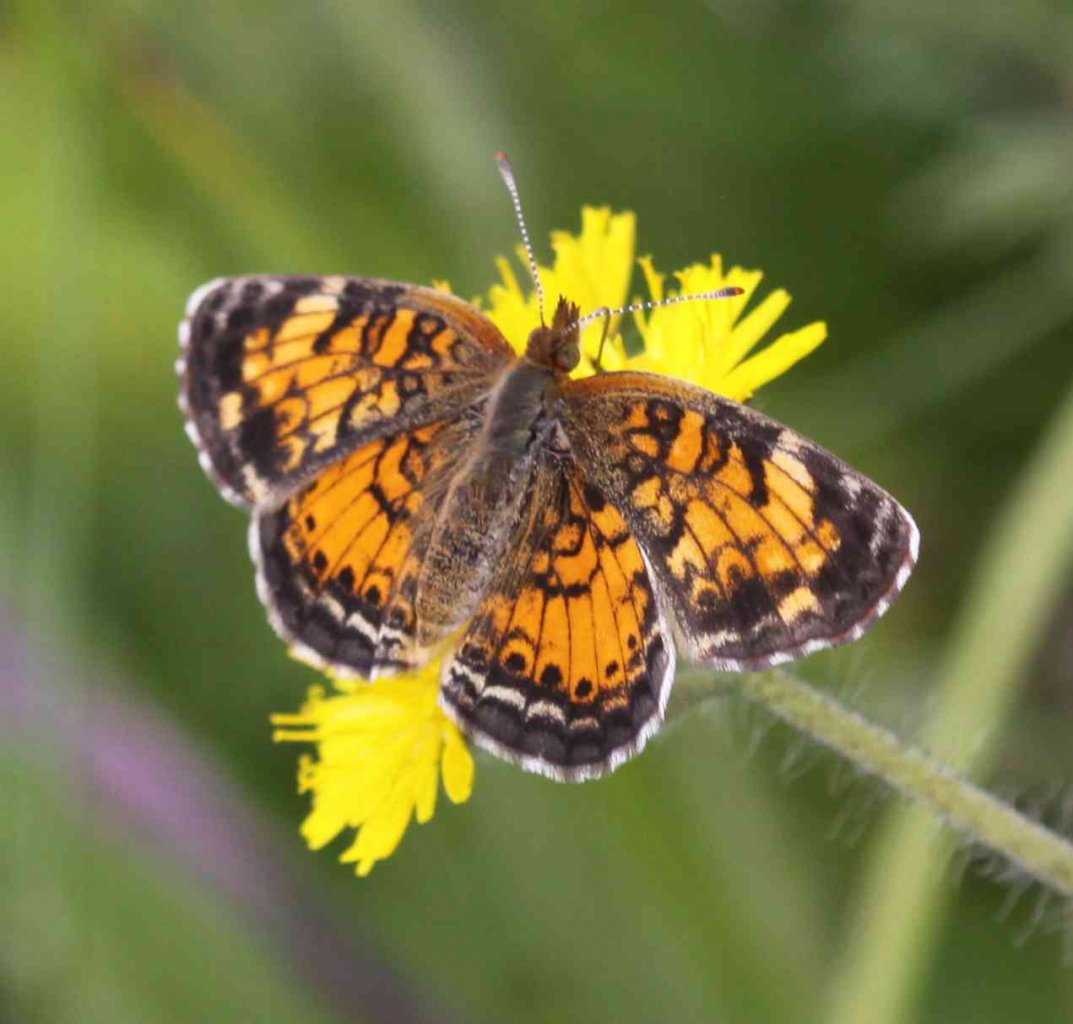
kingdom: Animalia
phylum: Arthropoda
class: Insecta
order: Lepidoptera
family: Nymphalidae
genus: Phyciodes
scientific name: Phyciodes tharos
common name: Northern Crescent
